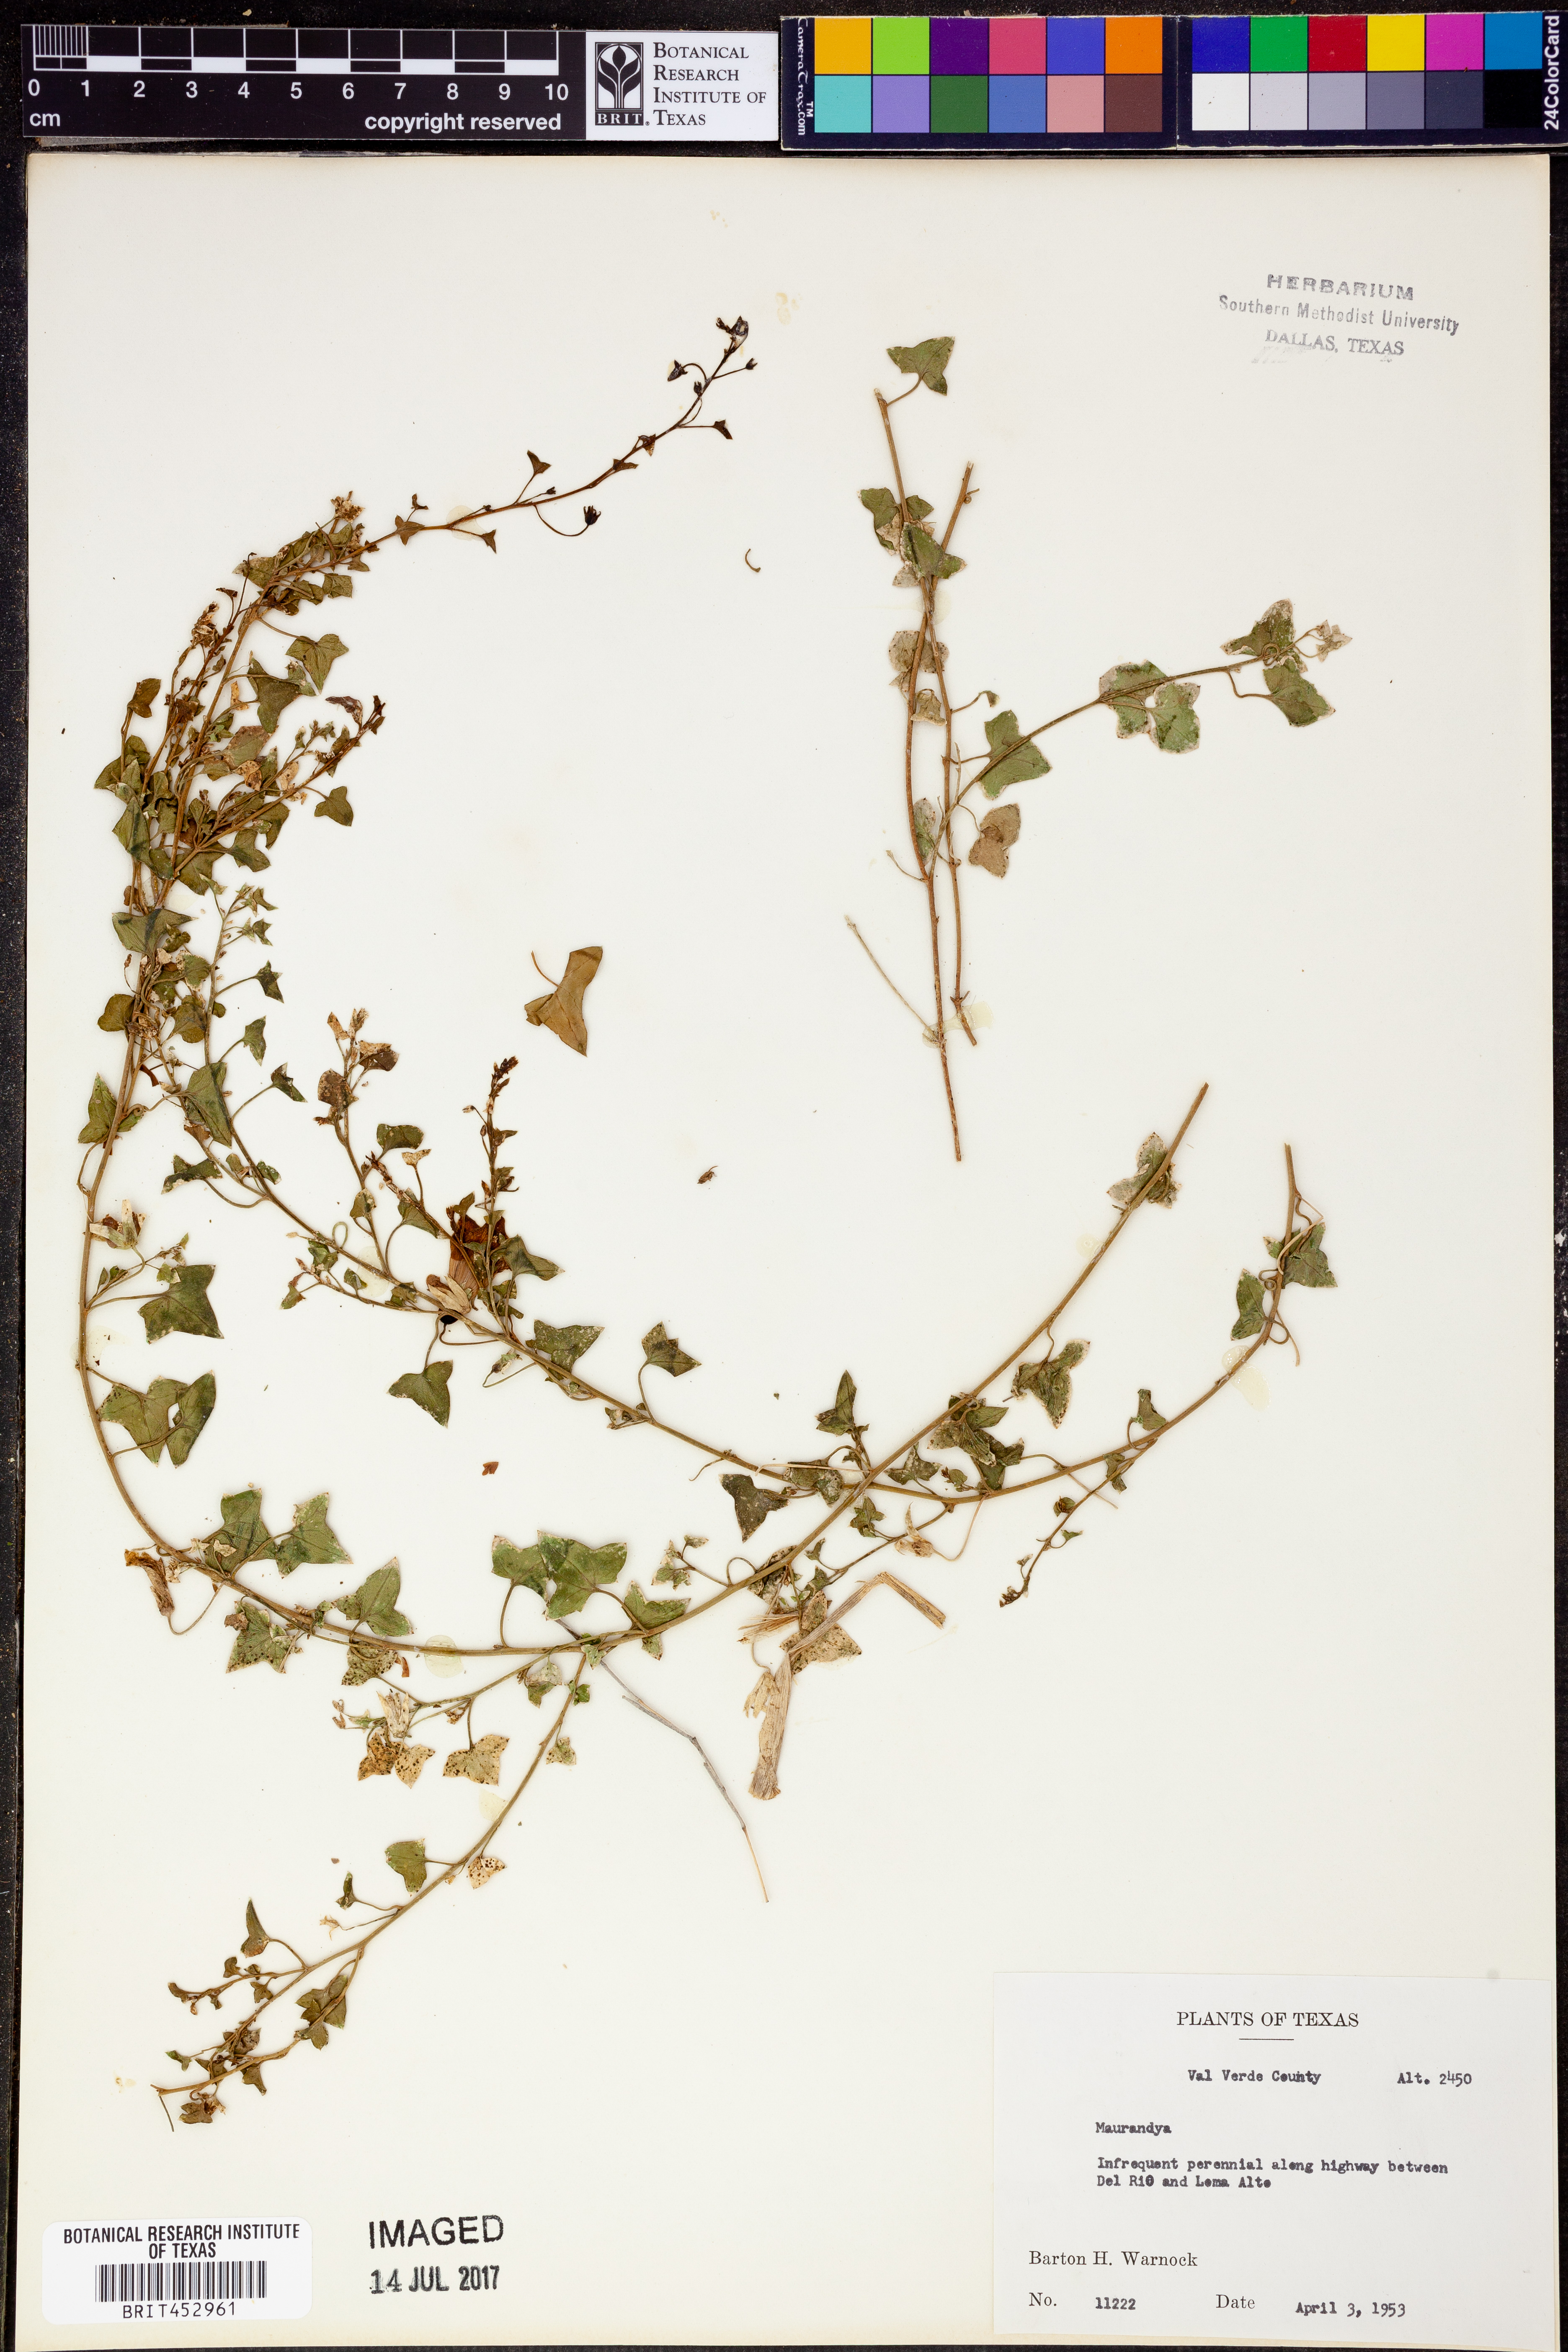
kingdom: Plantae
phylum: Tracheophyta
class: Magnoliopsida
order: Lamiales
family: Plantaginaceae
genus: Maurandya
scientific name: Maurandya
